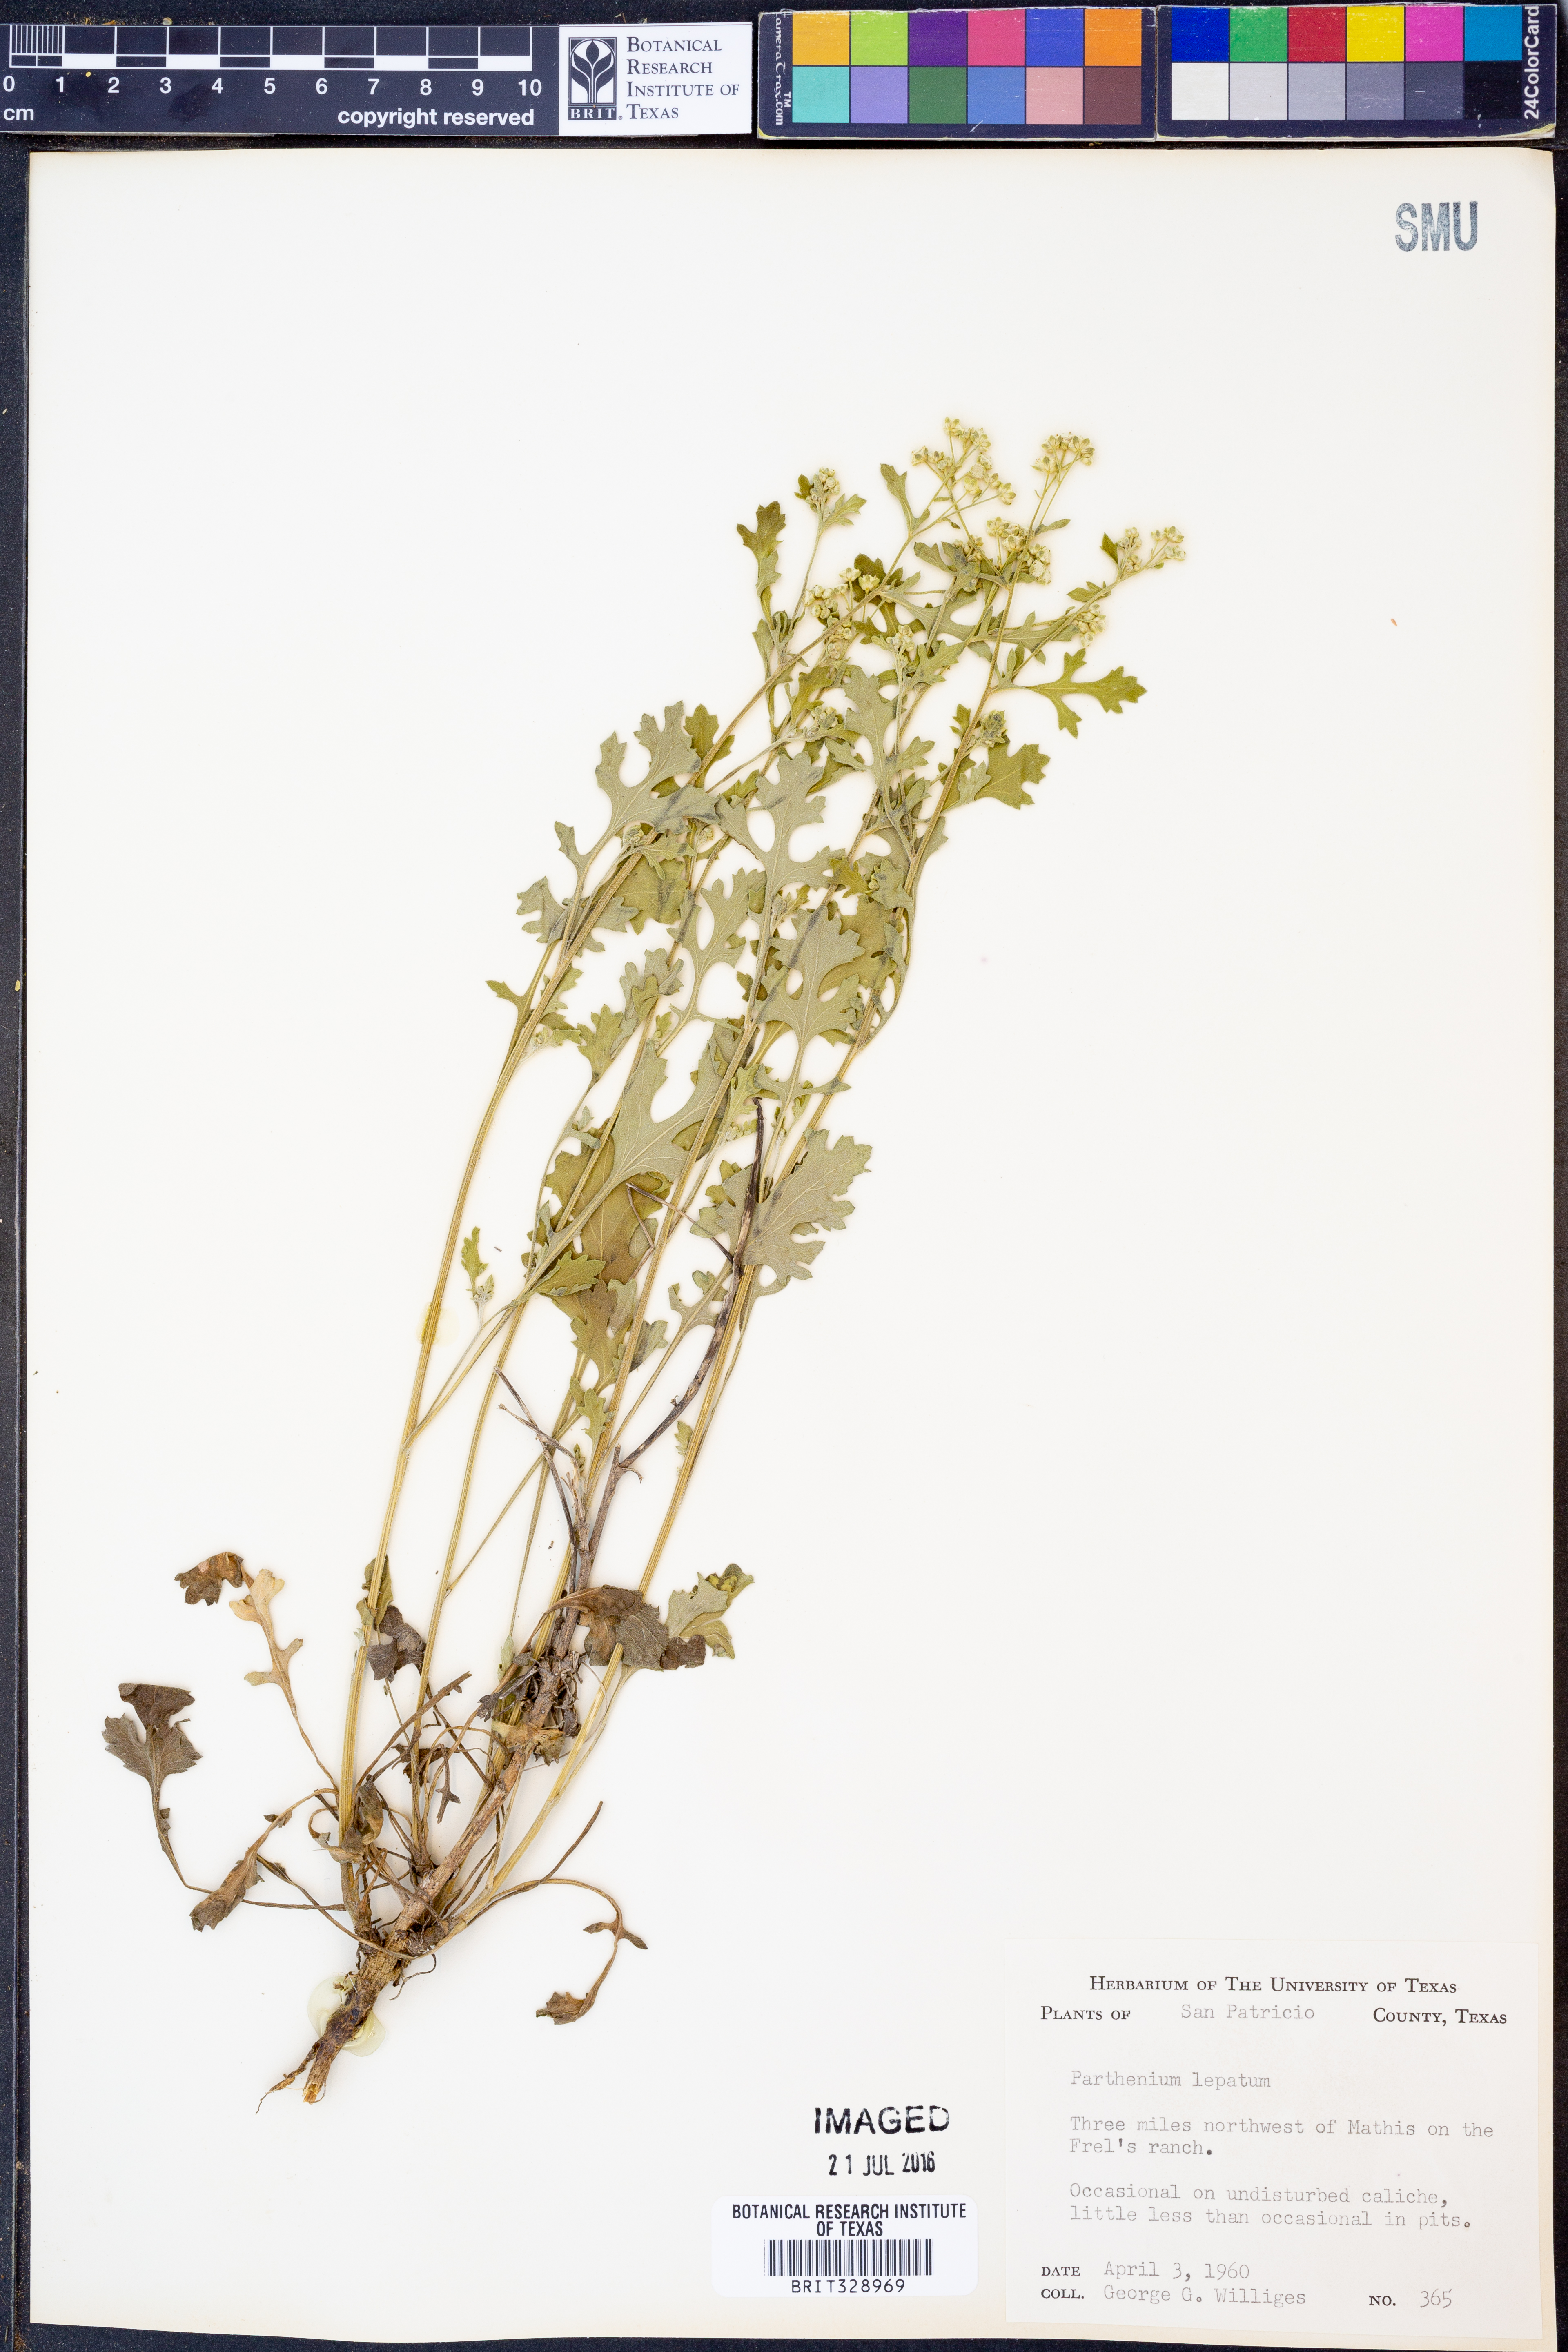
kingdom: Plantae
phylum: Tracheophyta
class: Magnoliopsida
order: Asterales
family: Asteraceae
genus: Parthenium
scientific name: Parthenium
